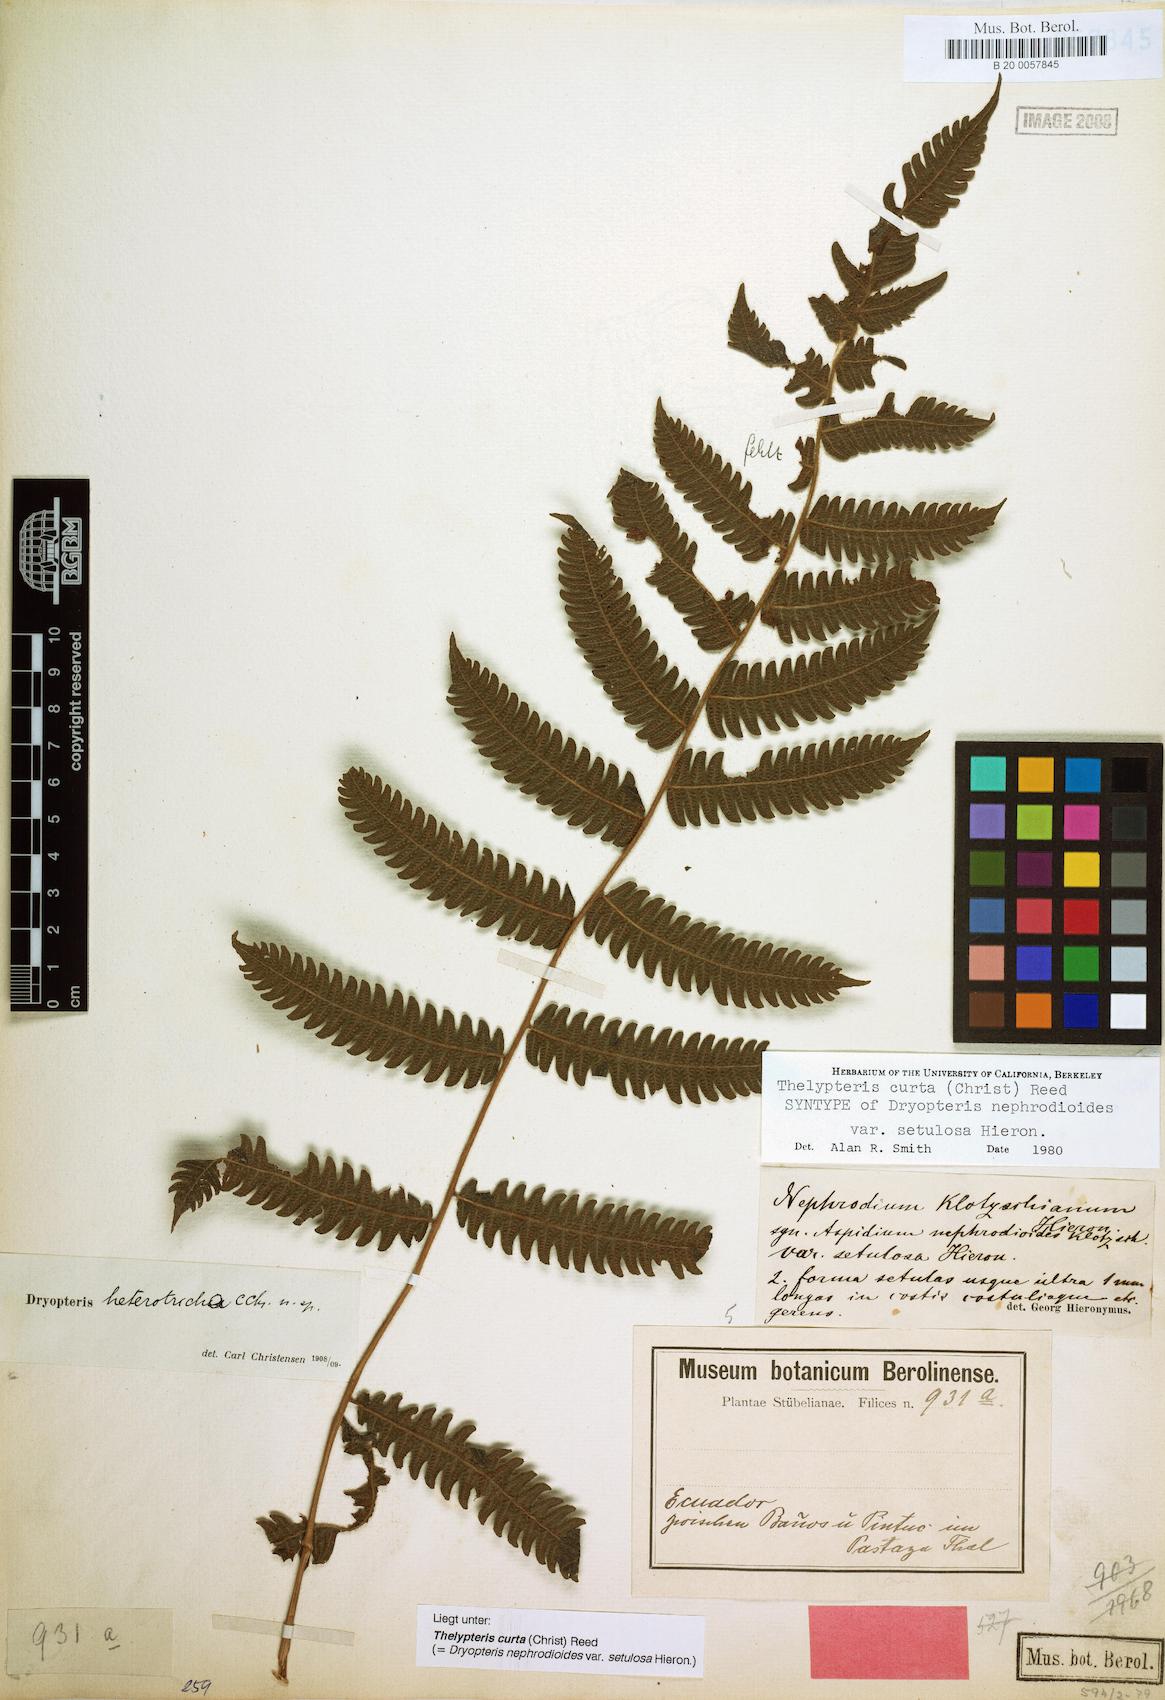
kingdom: Plantae
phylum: Tracheophyta
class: Polypodiopsida
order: Polypodiales
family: Thelypteridaceae
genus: Goniopteris
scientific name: Goniopteris curta
